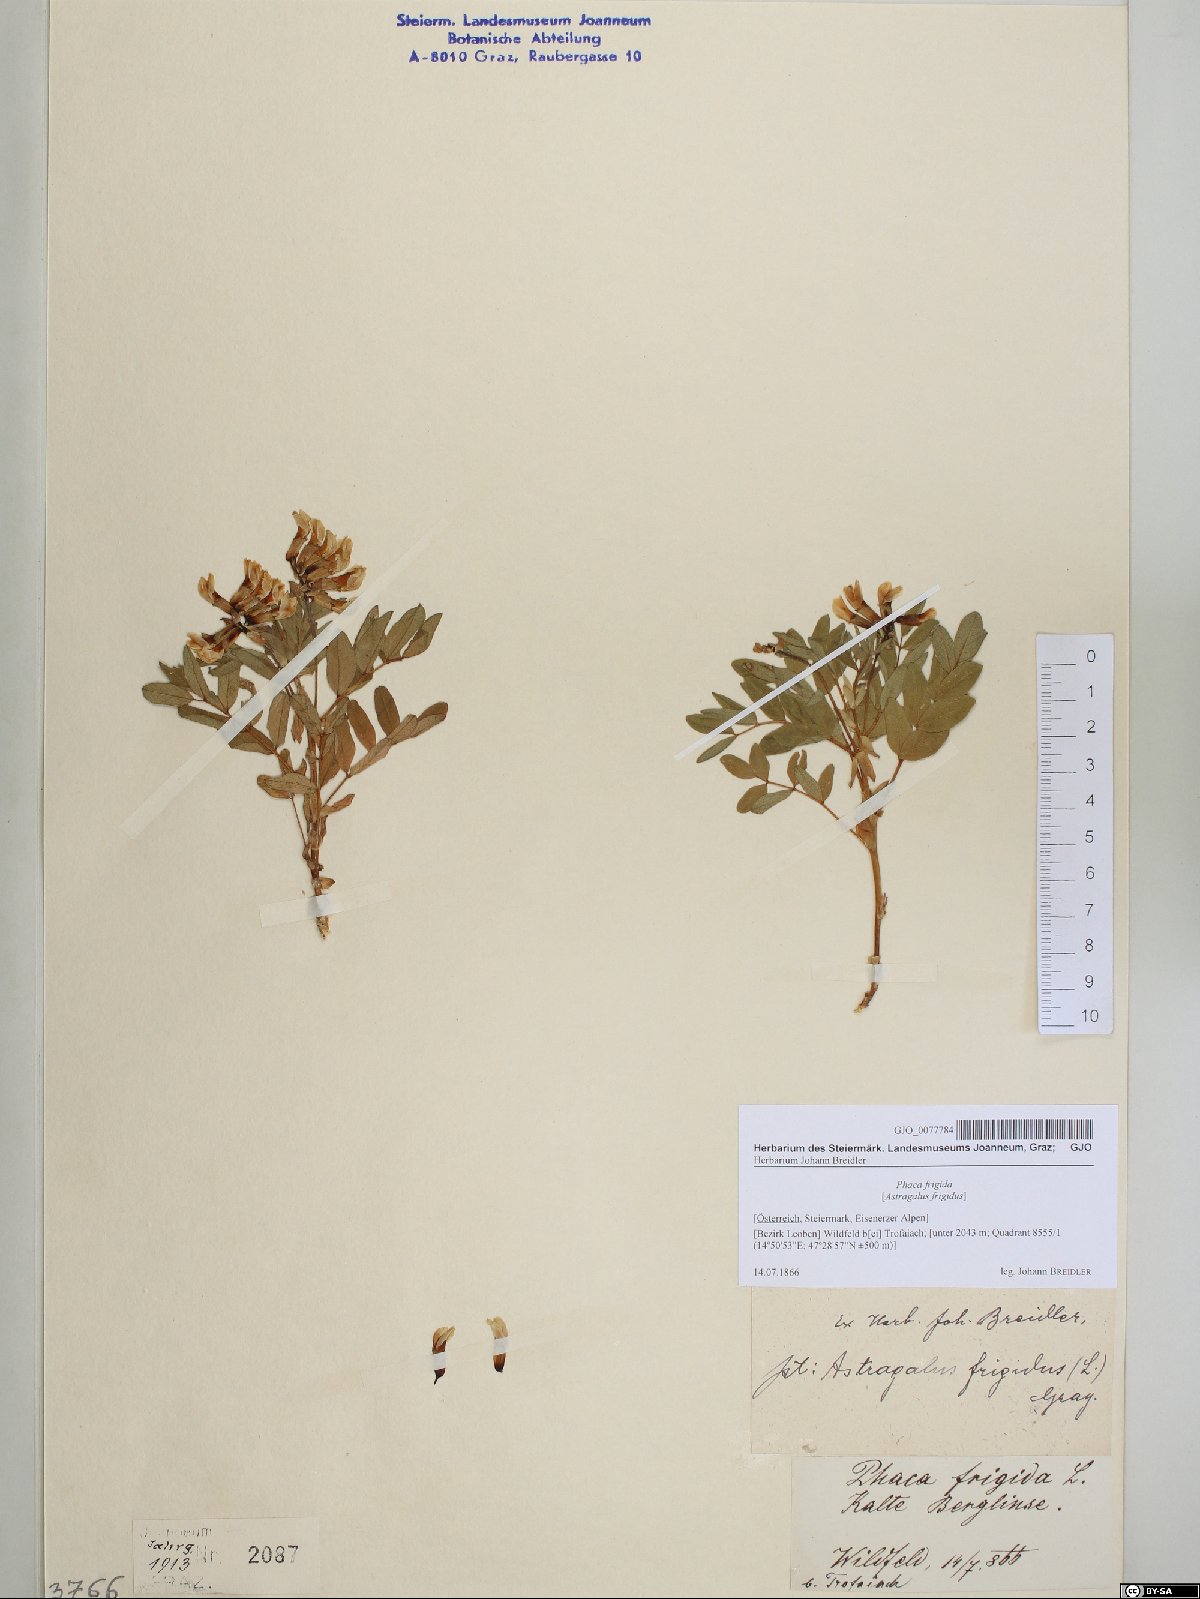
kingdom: Plantae
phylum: Tracheophyta
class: Magnoliopsida
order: Fabales
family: Fabaceae
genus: Astragalus
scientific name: Astragalus frigidus
